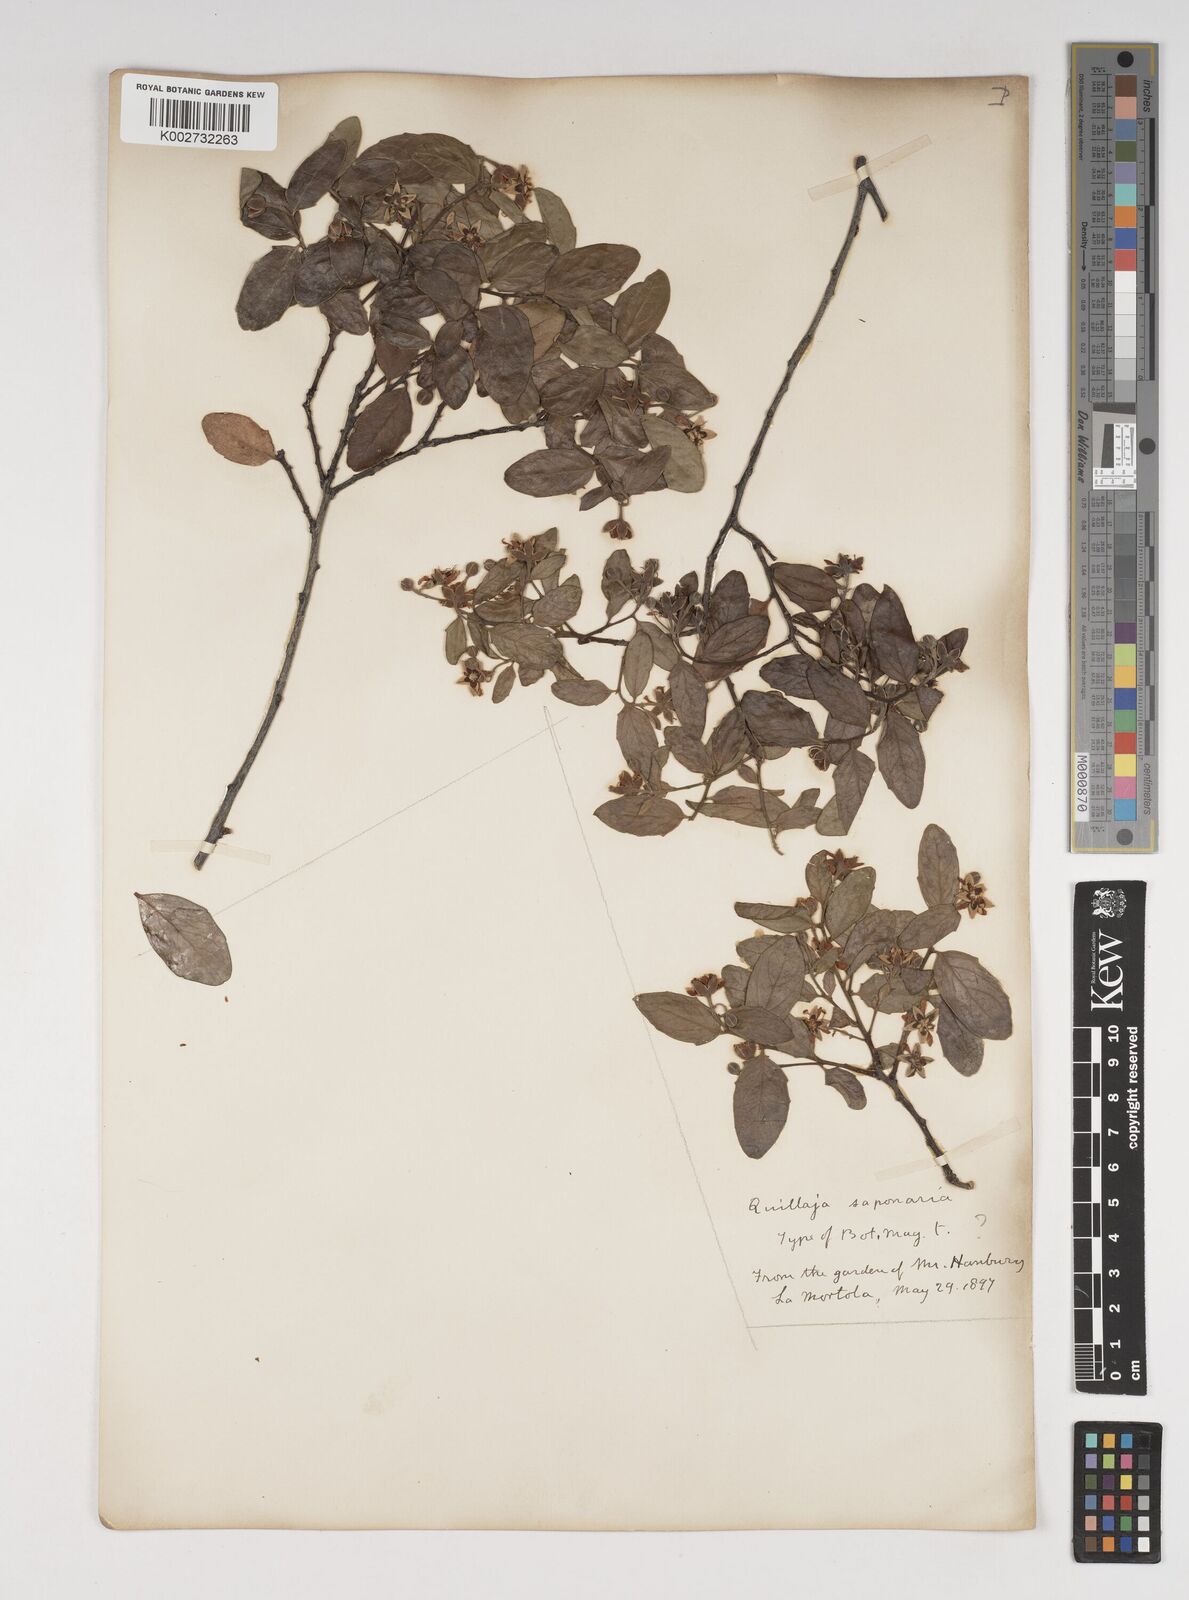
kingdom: Plantae
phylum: Tracheophyta
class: Magnoliopsida
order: Fabales
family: Quillajaceae
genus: Quillaja
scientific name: Quillaja saponaria
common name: Murillo's-bark
